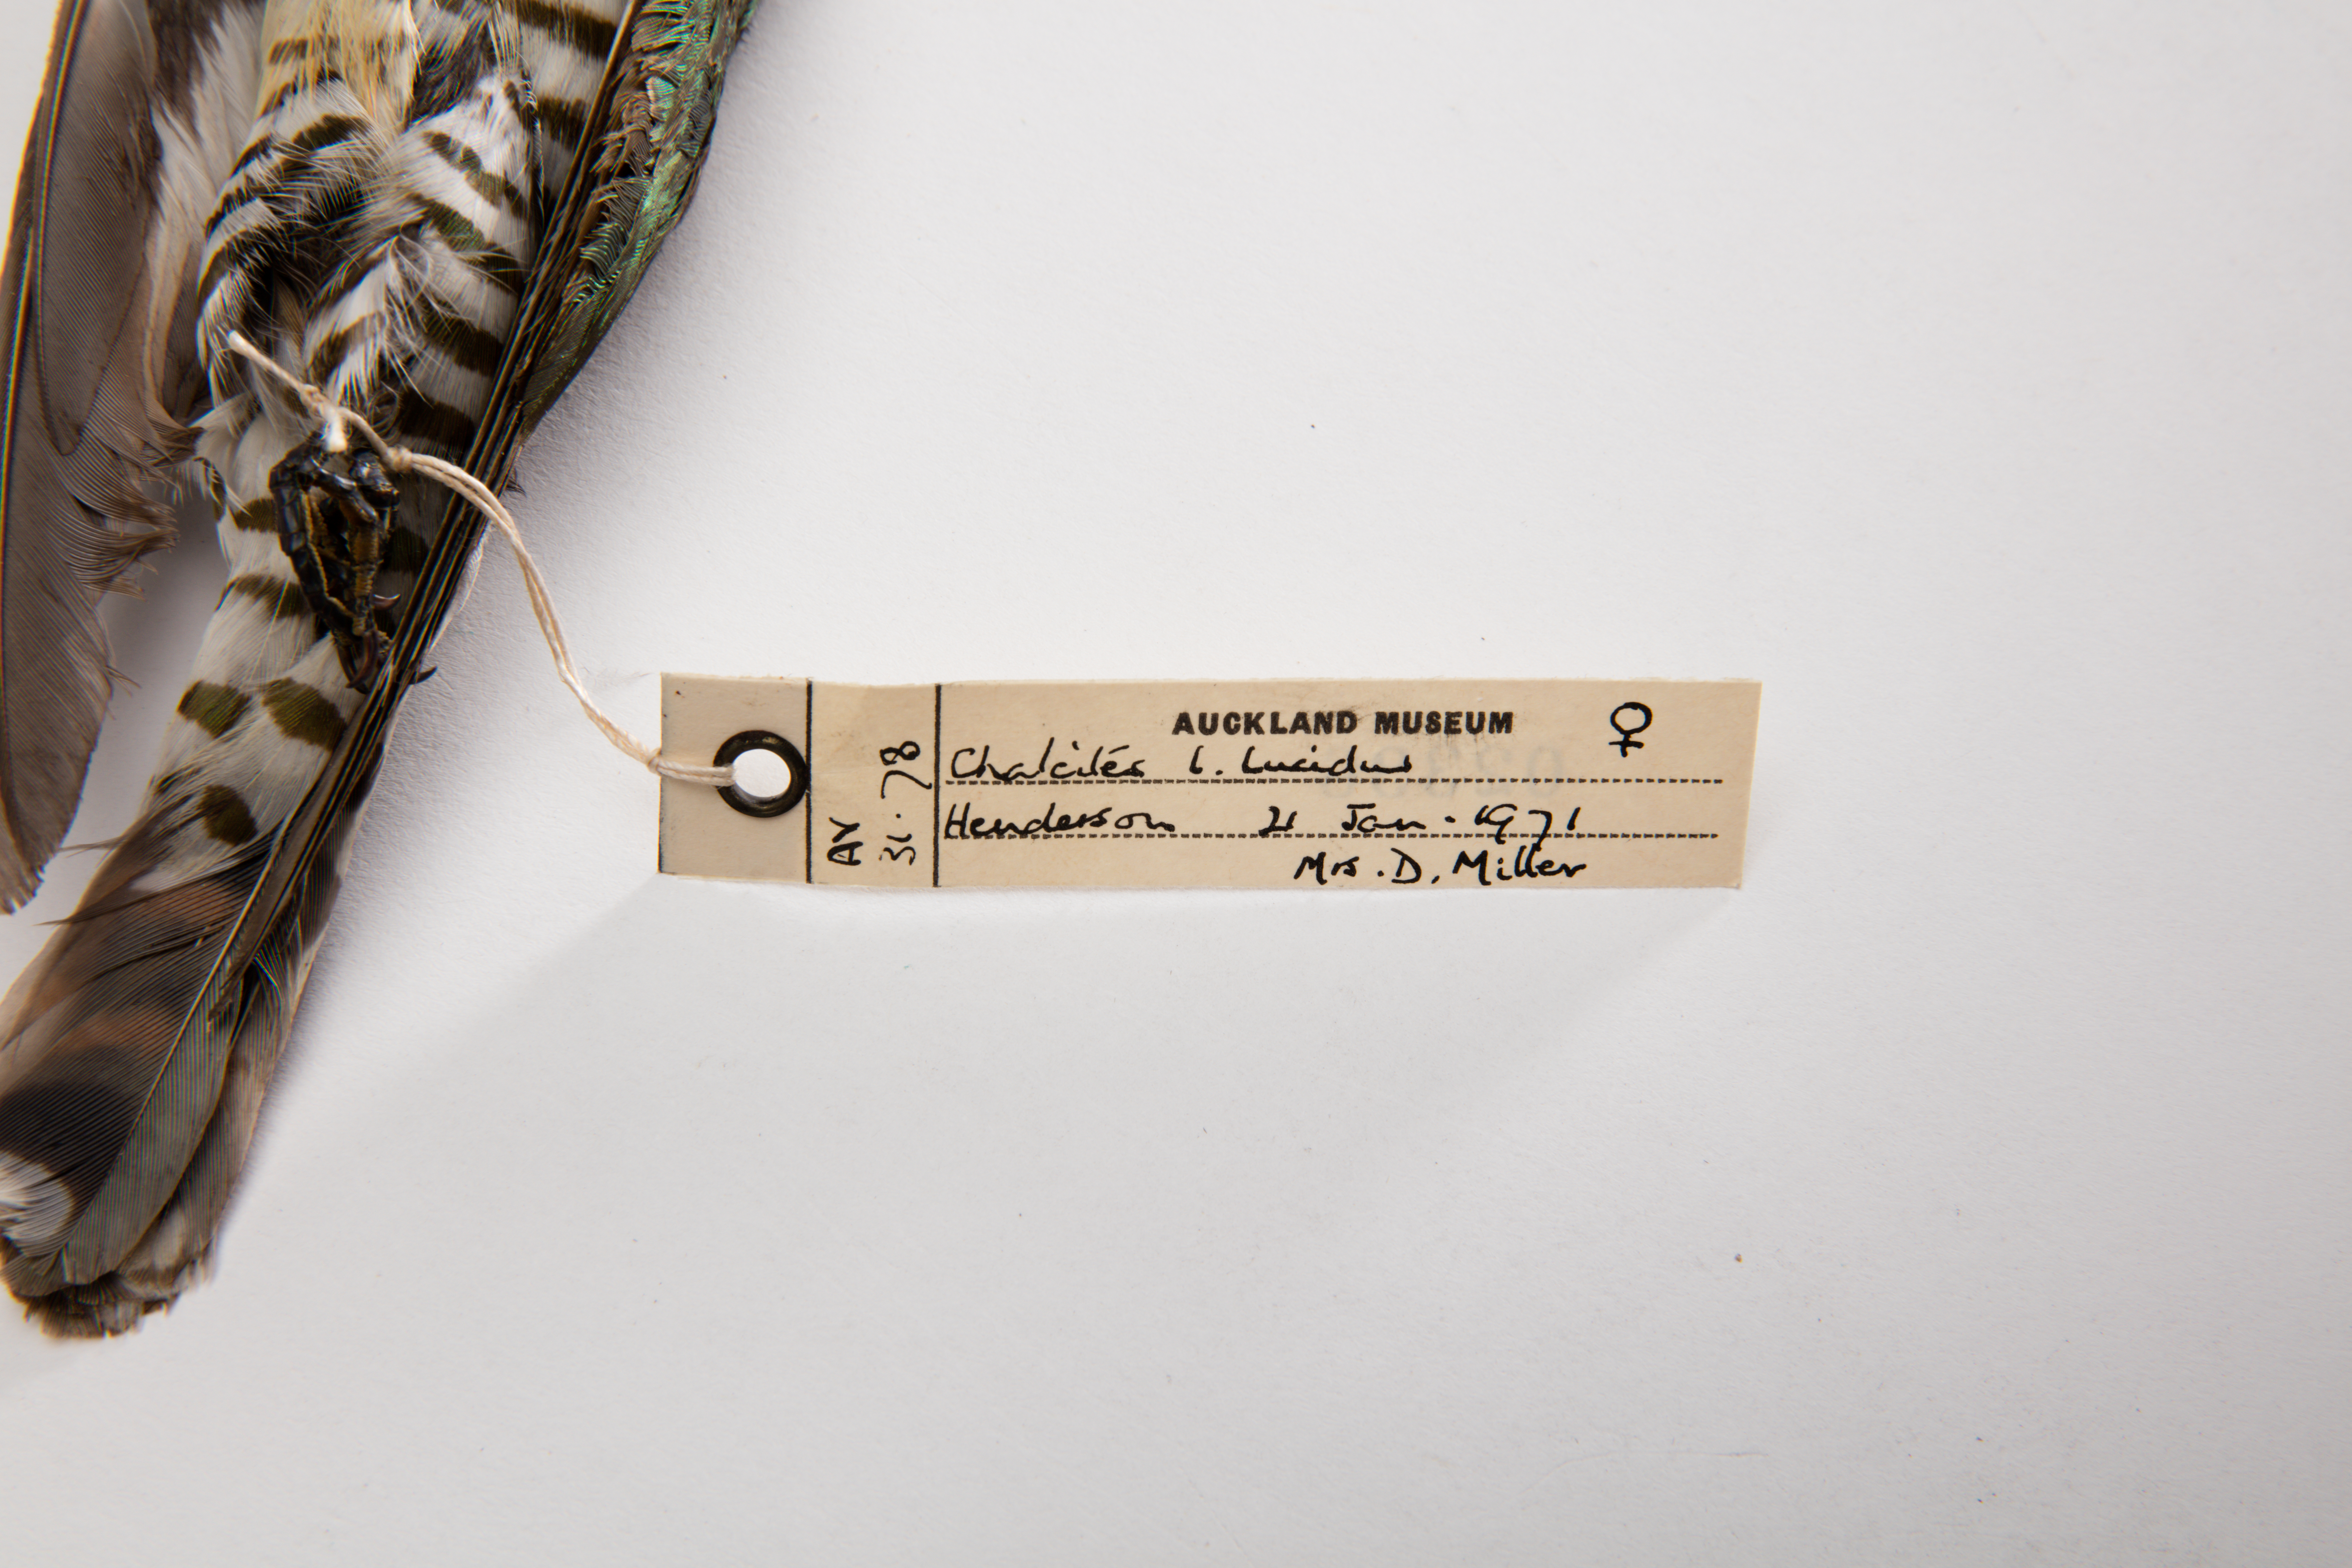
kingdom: Animalia
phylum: Chordata
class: Aves
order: Cuculiformes
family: Cuculidae
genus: Chrysococcyx
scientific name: Chrysococcyx lucidus
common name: Shining bronze cuckoo
